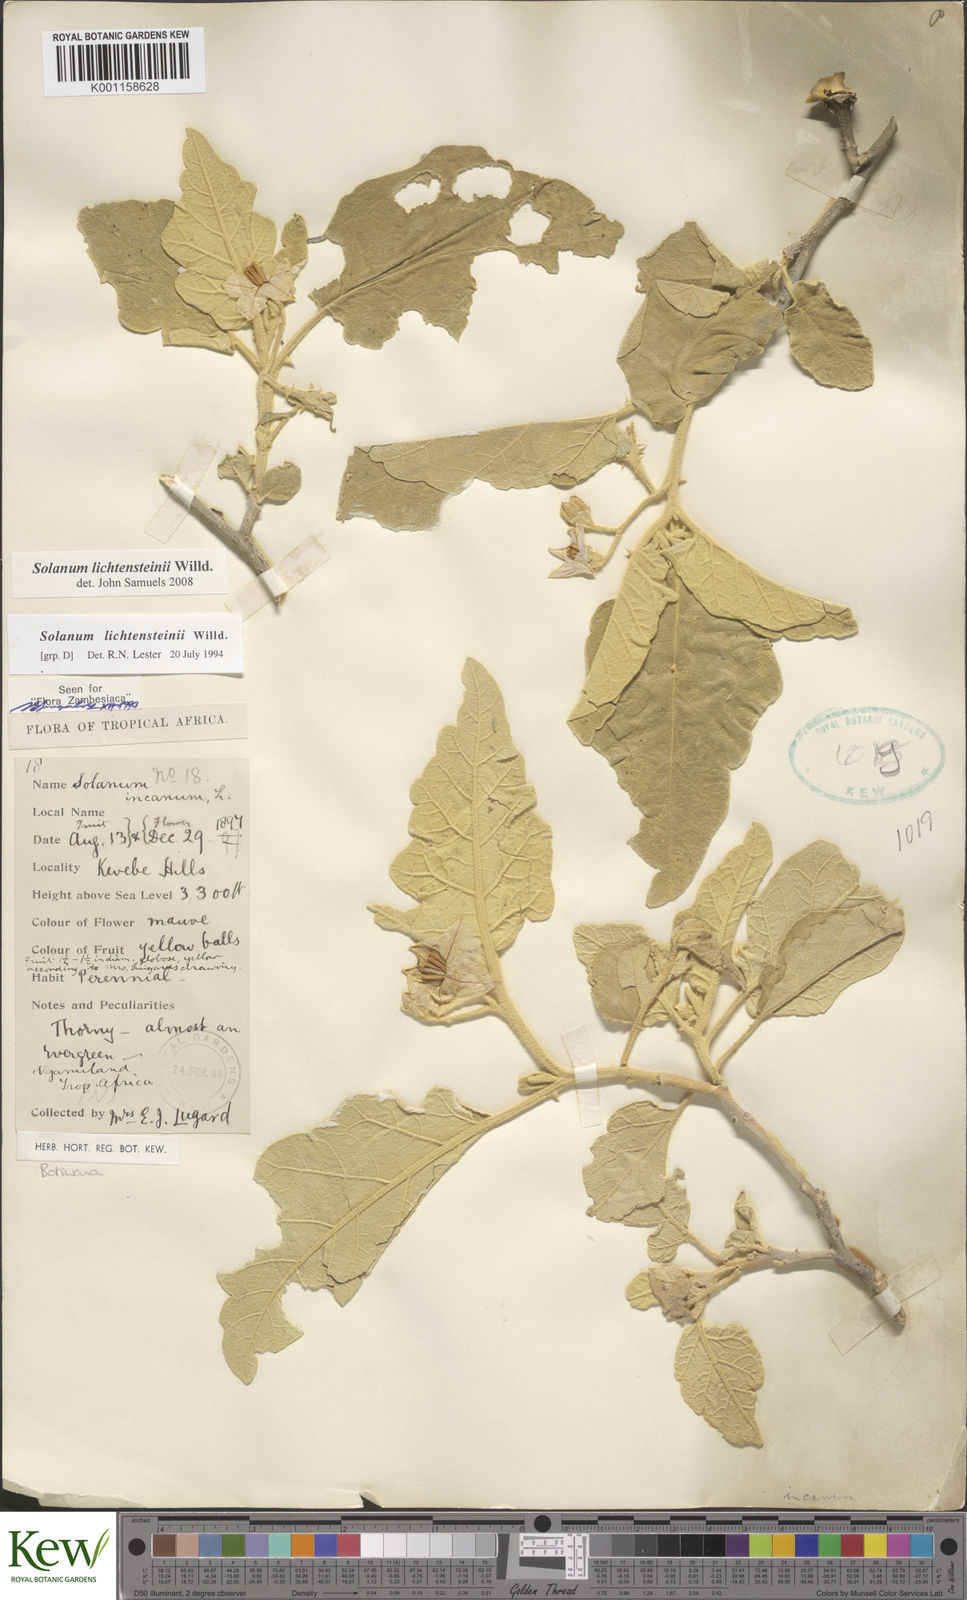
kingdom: Plantae
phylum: Tracheophyta
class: Magnoliopsida
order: Solanales
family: Solanaceae
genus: Solanum
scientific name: Solanum lichtensteinii
